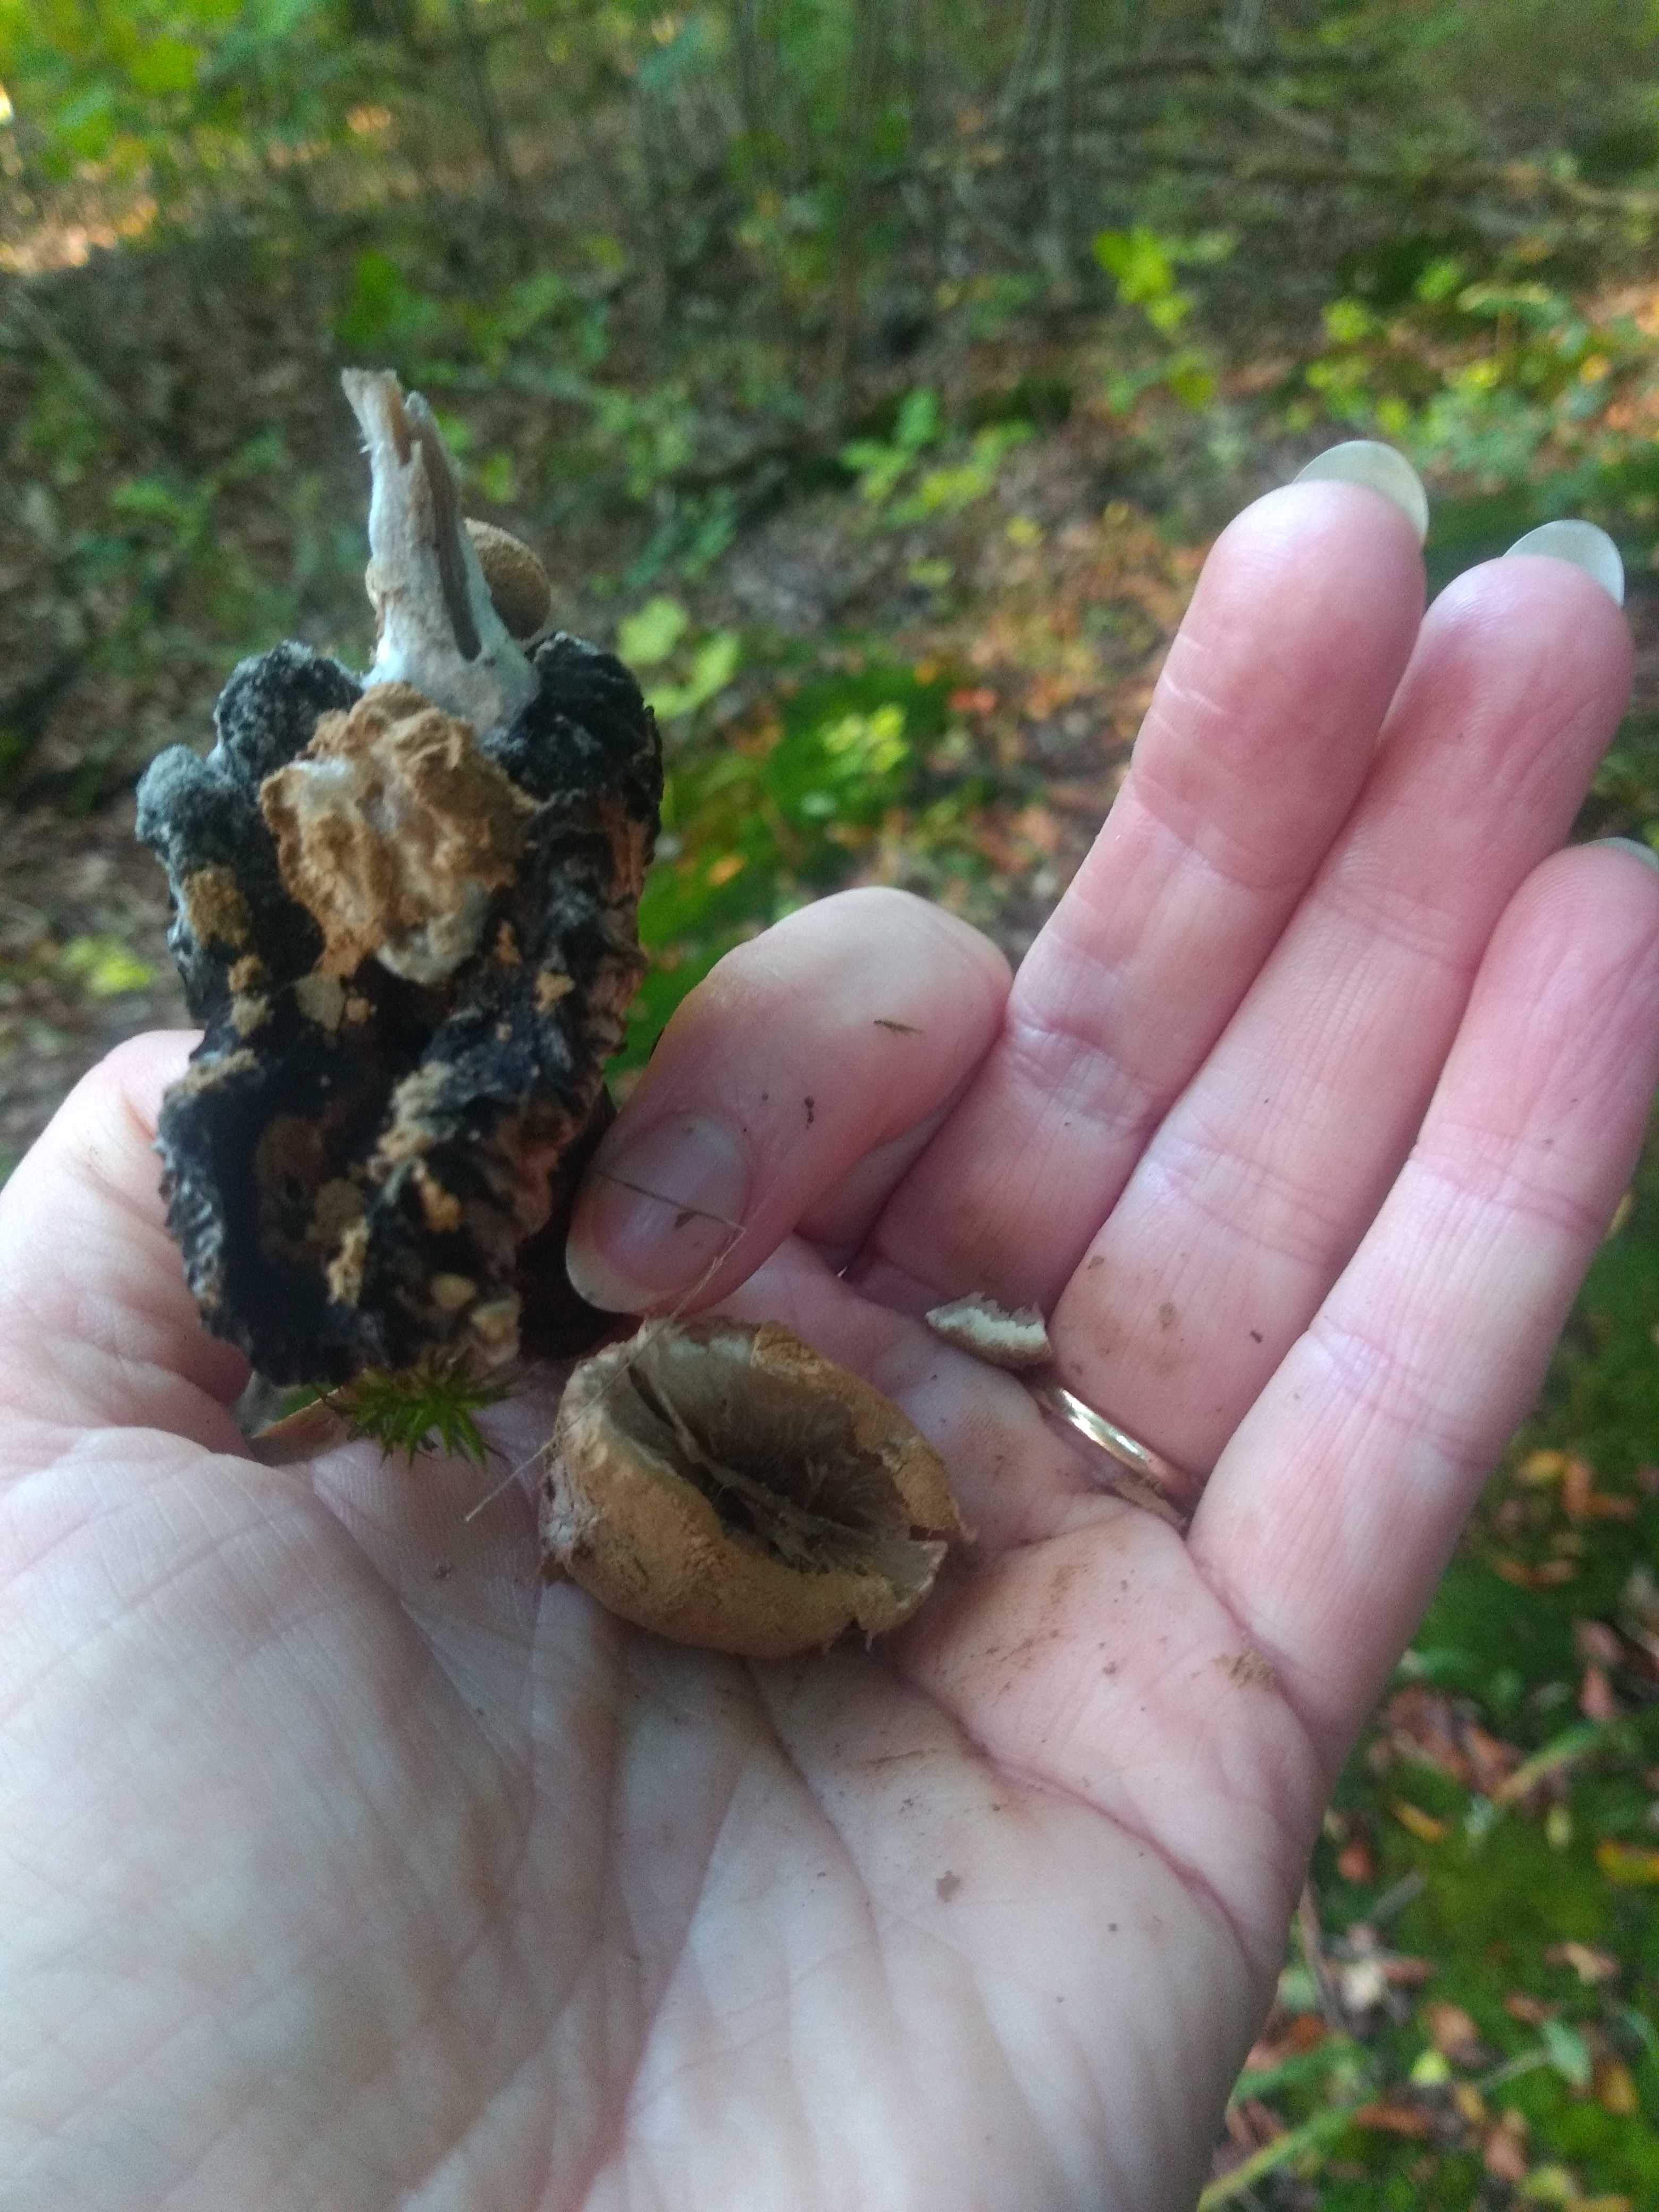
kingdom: Fungi
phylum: Basidiomycota
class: Agaricomycetes
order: Agaricales
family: Lyophyllaceae
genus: Asterophora
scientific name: Asterophora lycoperdoides
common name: brunpudret snyltehat
